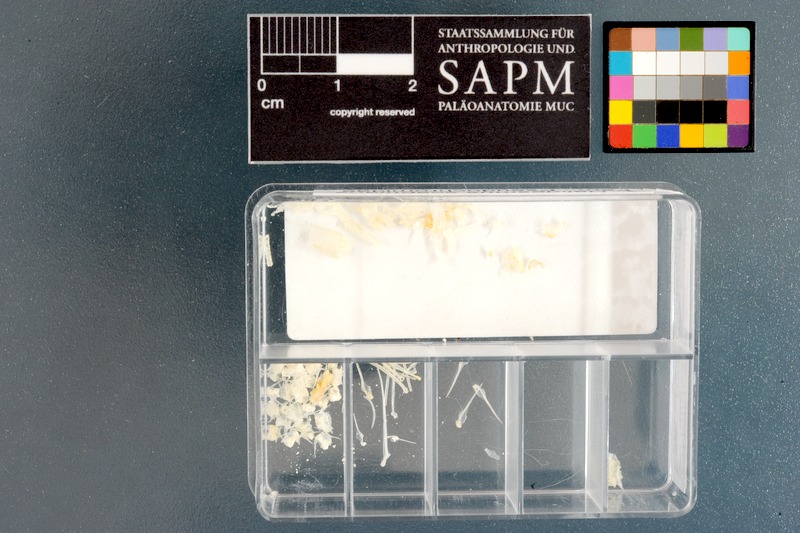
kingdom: Animalia
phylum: Chordata
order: Perciformes
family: Pseudochromidae
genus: Halidesmus
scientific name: Halidesmus scapularis
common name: Snakelet
